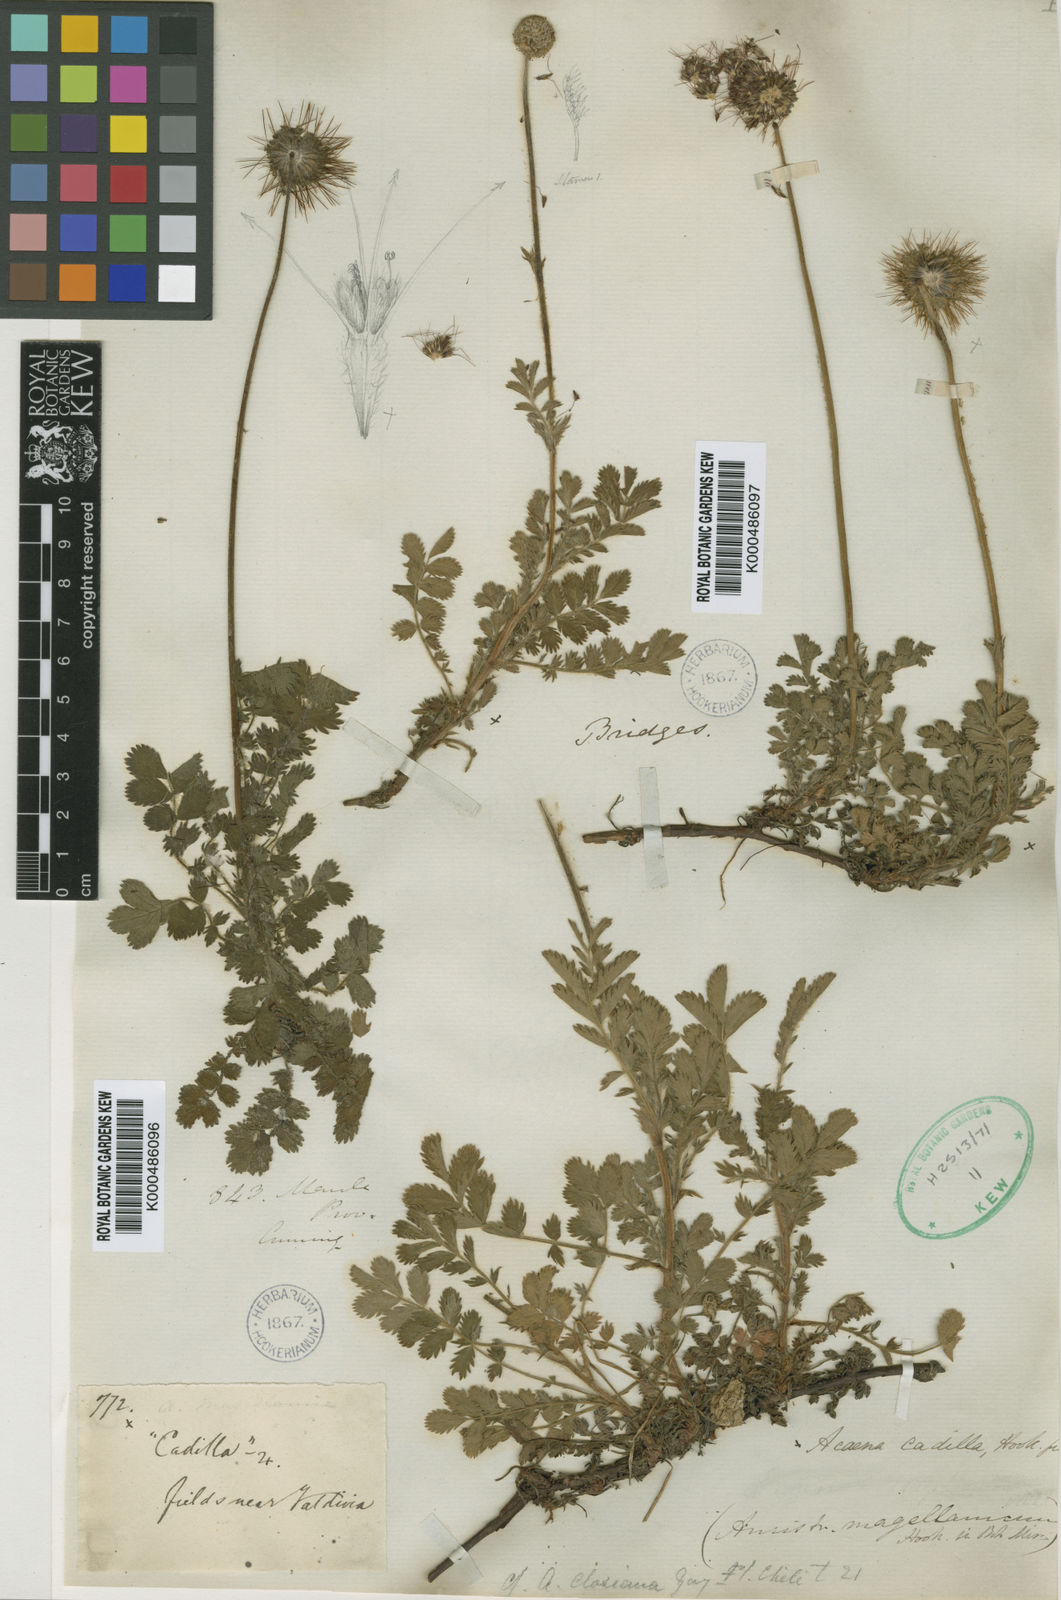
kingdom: Plantae
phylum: Tracheophyta
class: Magnoliopsida
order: Rosales
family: Rosaceae
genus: Acaena
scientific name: Acaena ovalifolia
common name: Two-spined acaena
